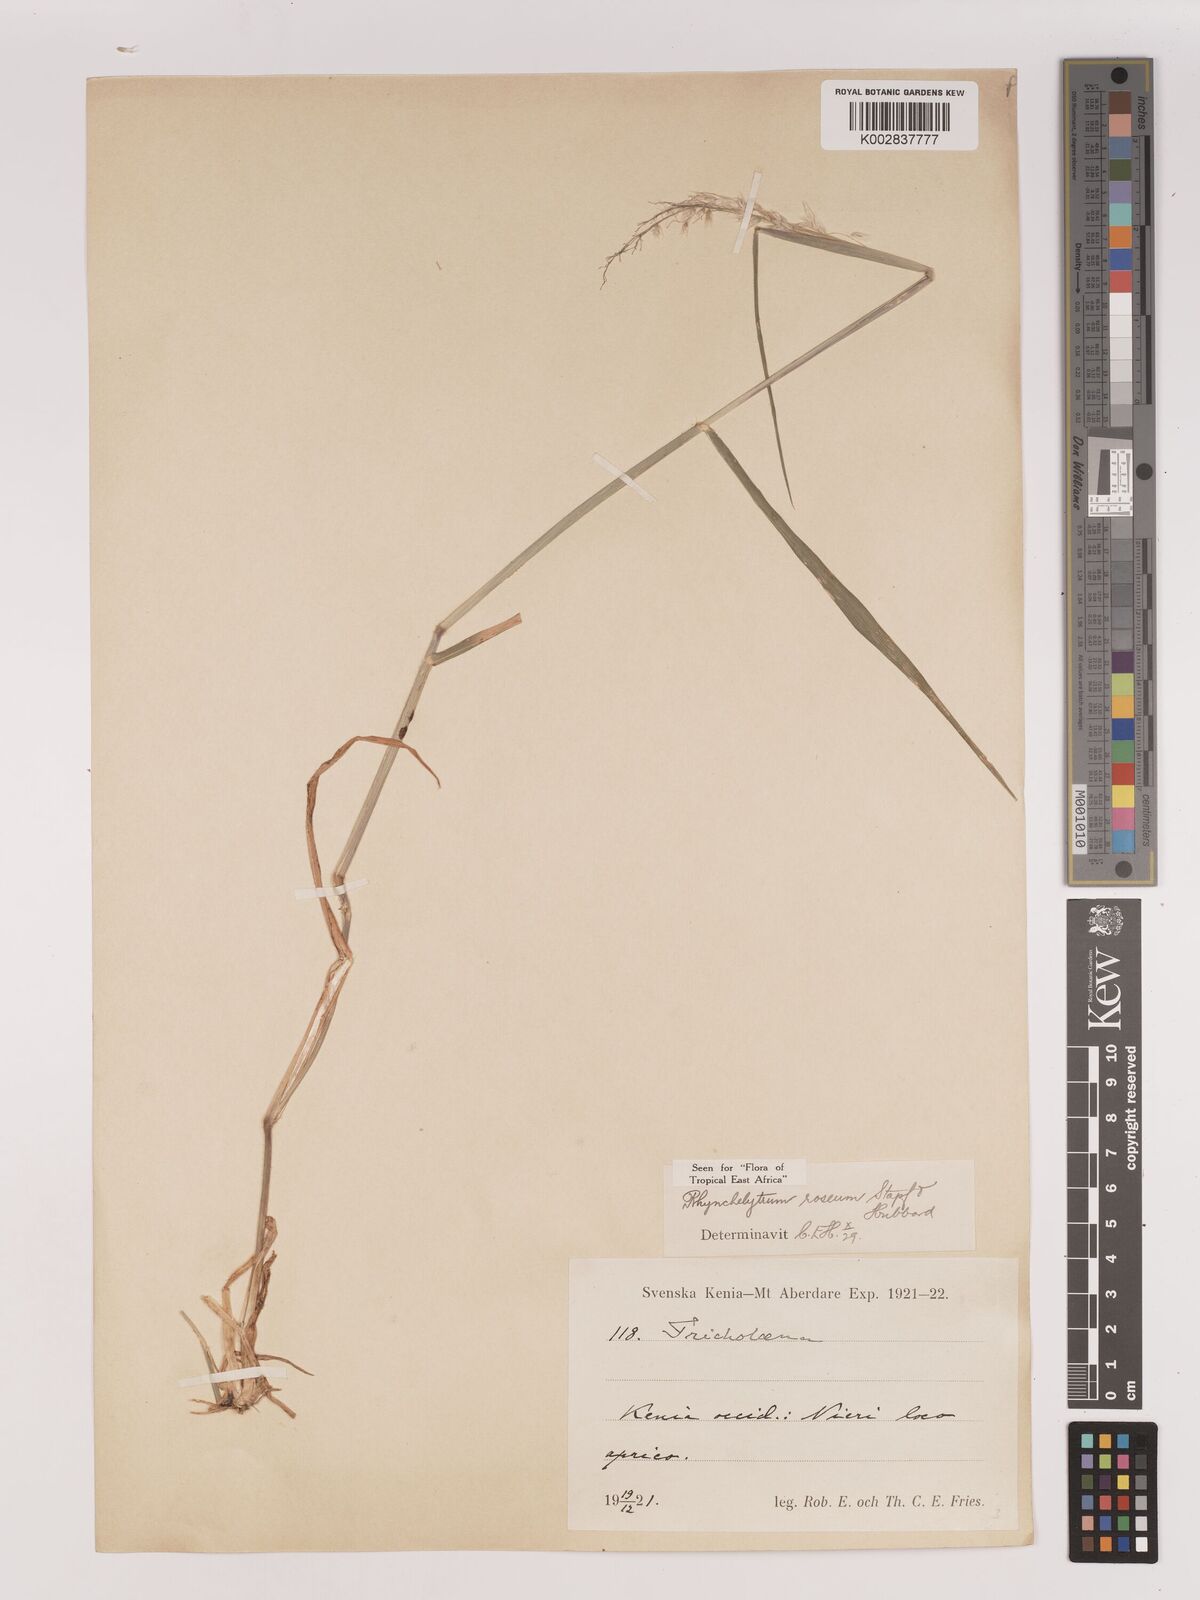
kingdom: Plantae
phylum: Tracheophyta
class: Liliopsida
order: Poales
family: Poaceae
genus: Melinis
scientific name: Melinis repens
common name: Rose natal grass
